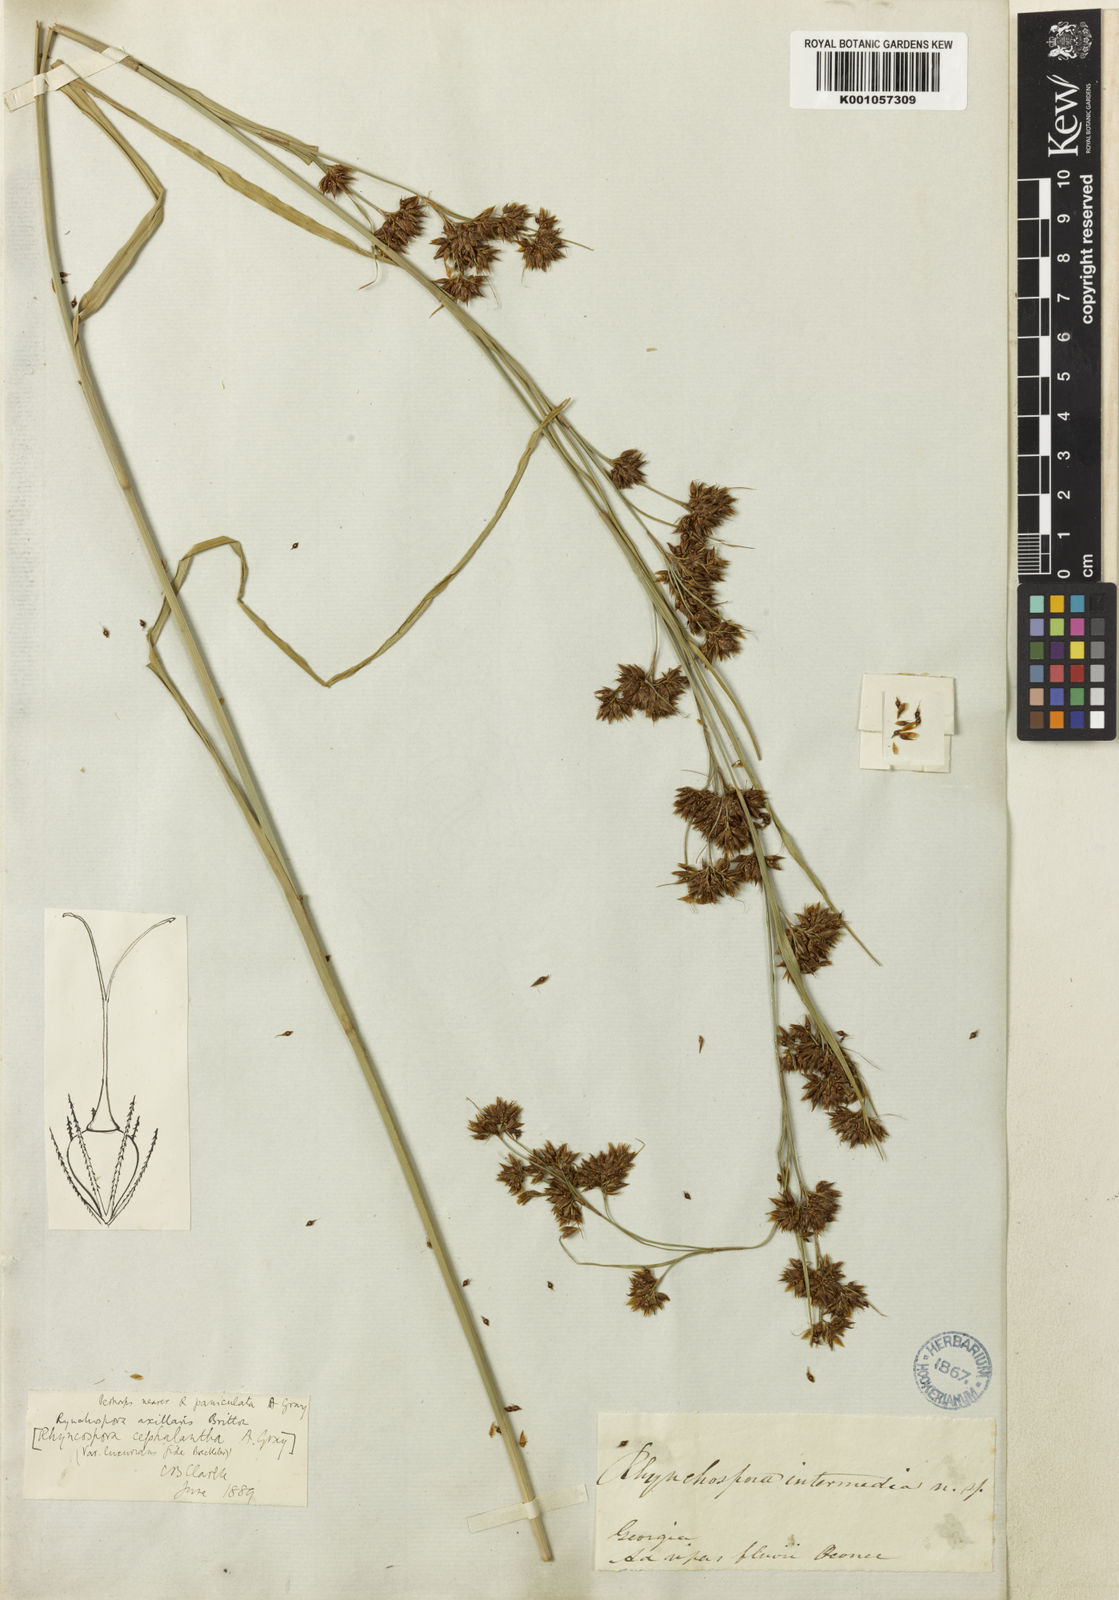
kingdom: Plantae
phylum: Tracheophyta
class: Liliopsida
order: Poales
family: Cyperaceae
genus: Rhynchospora
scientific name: Rhynchospora glomerata
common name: Cluster beak sedge
